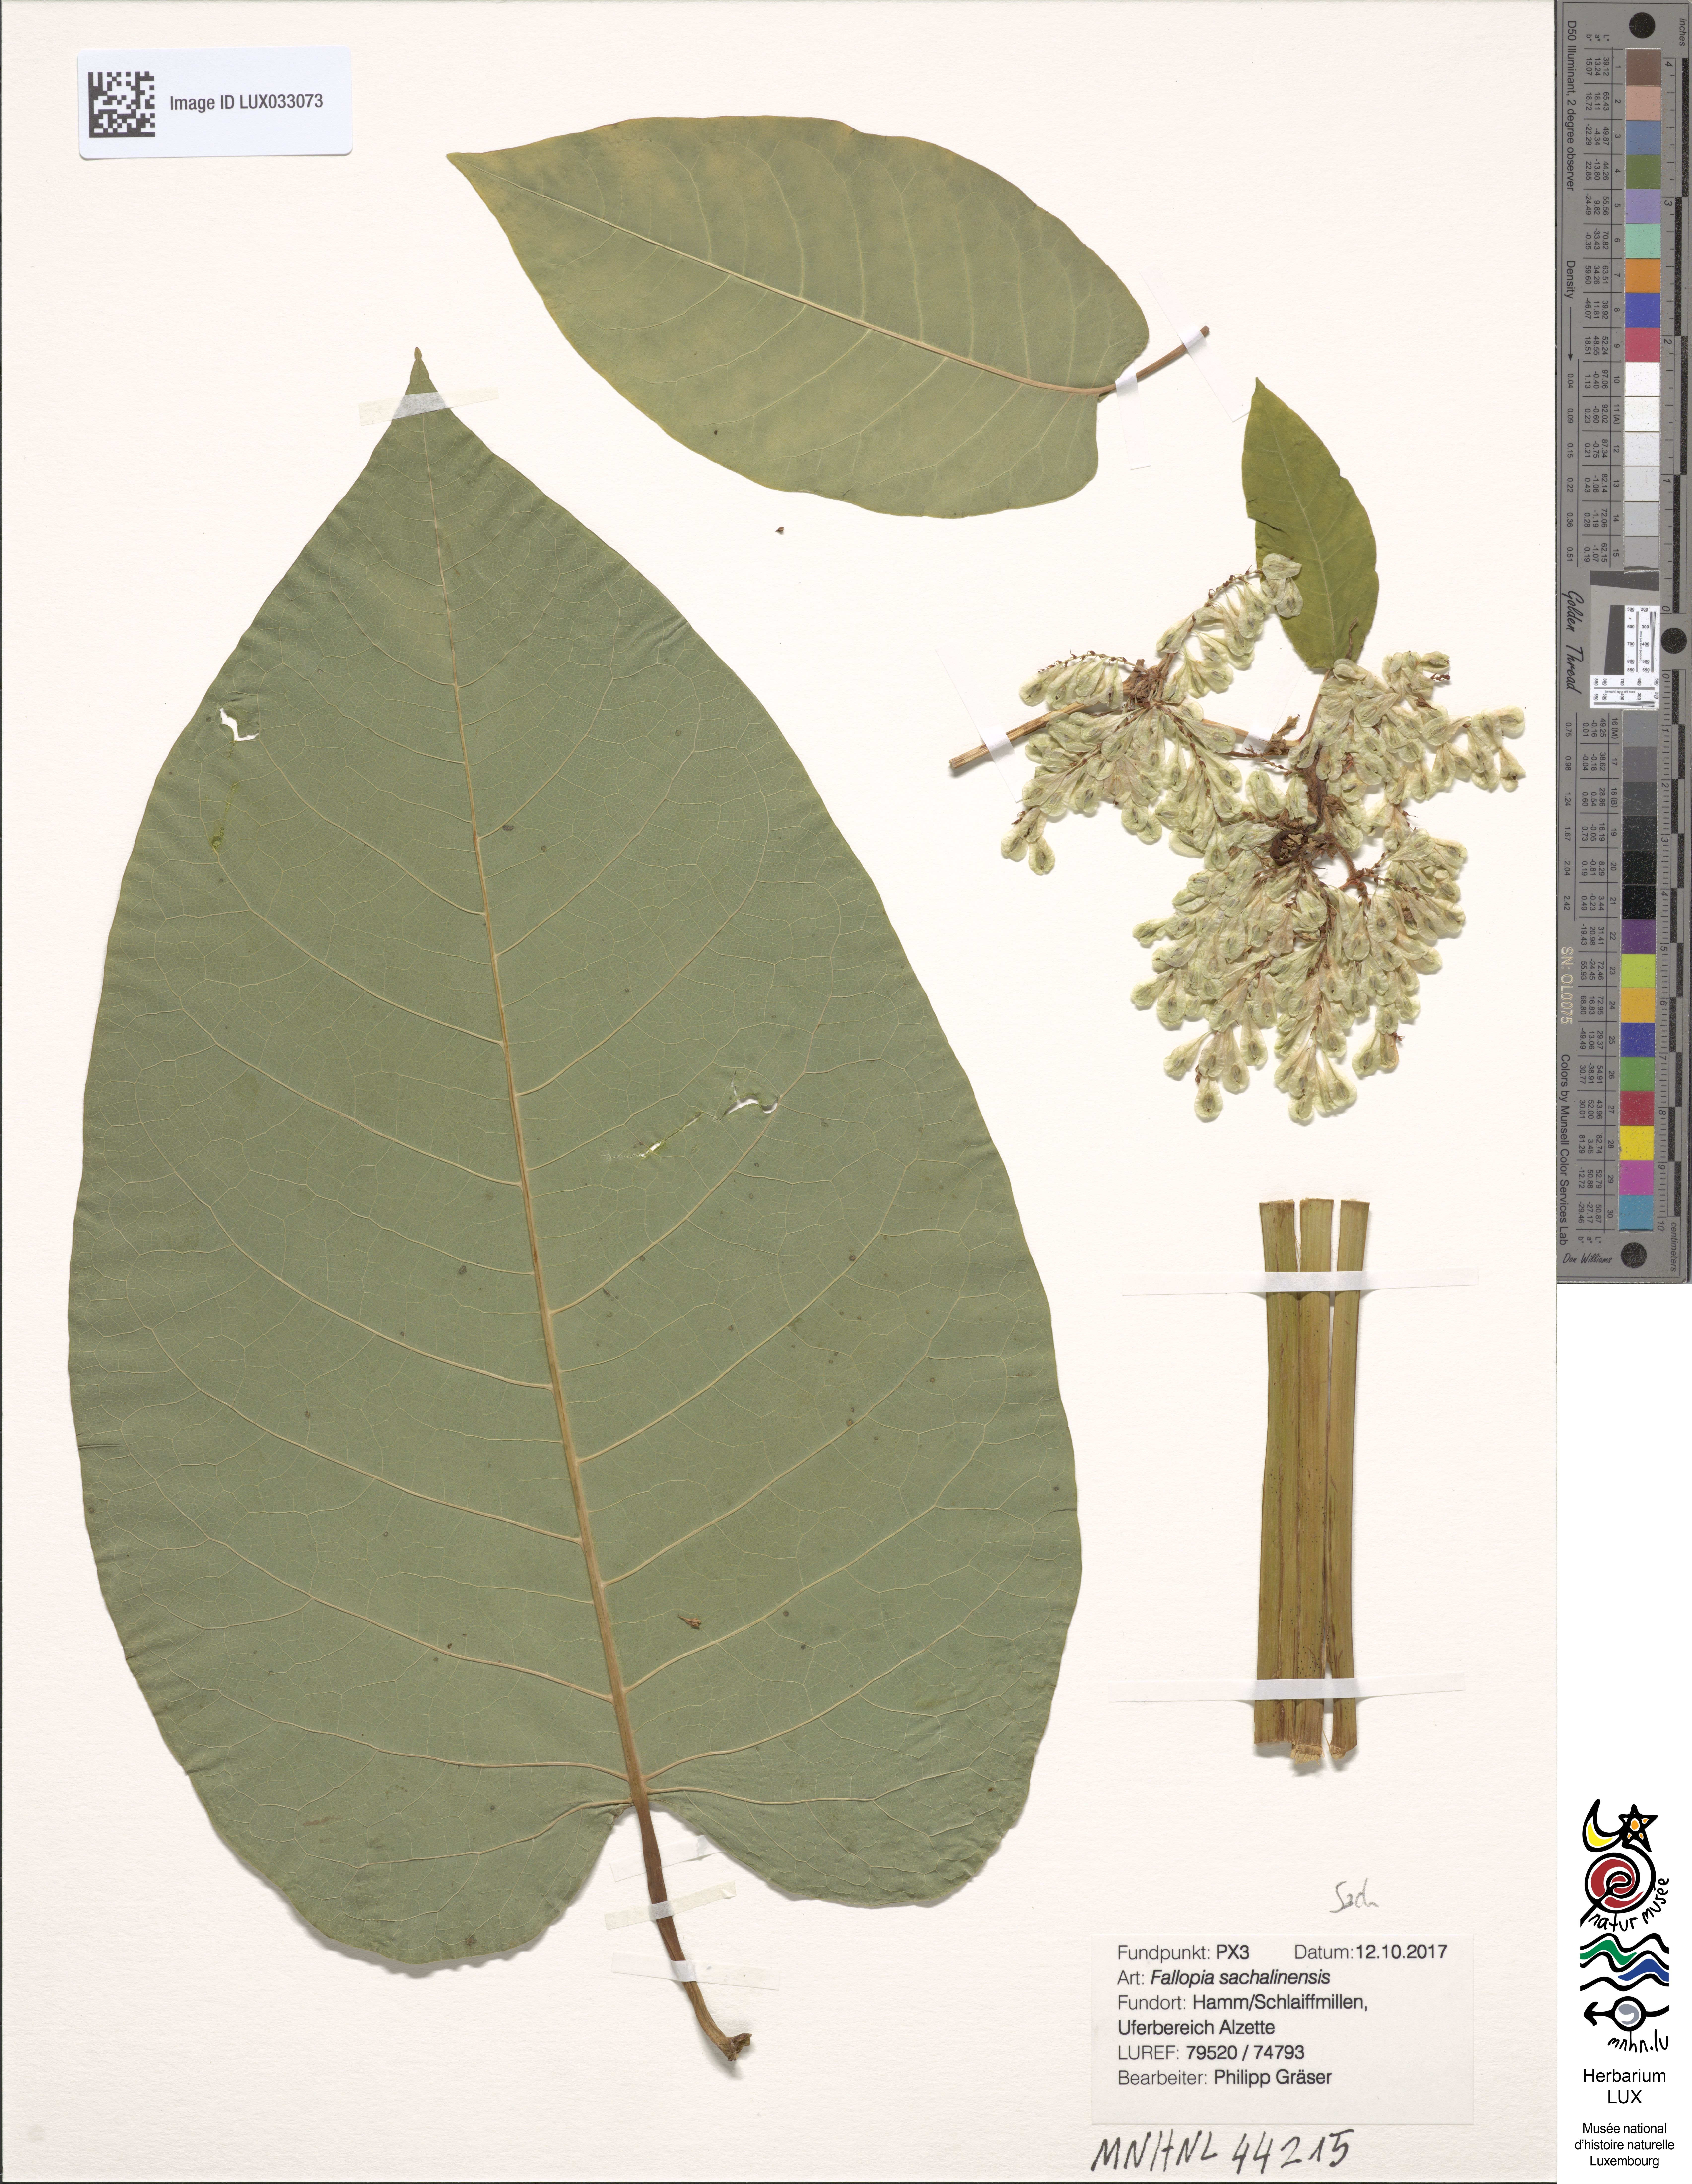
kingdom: Plantae
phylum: Tracheophyta
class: Magnoliopsida
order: Caryophyllales
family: Polygonaceae
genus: Reynoutria
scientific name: Reynoutria sachalinensis
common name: Giant knotweed
